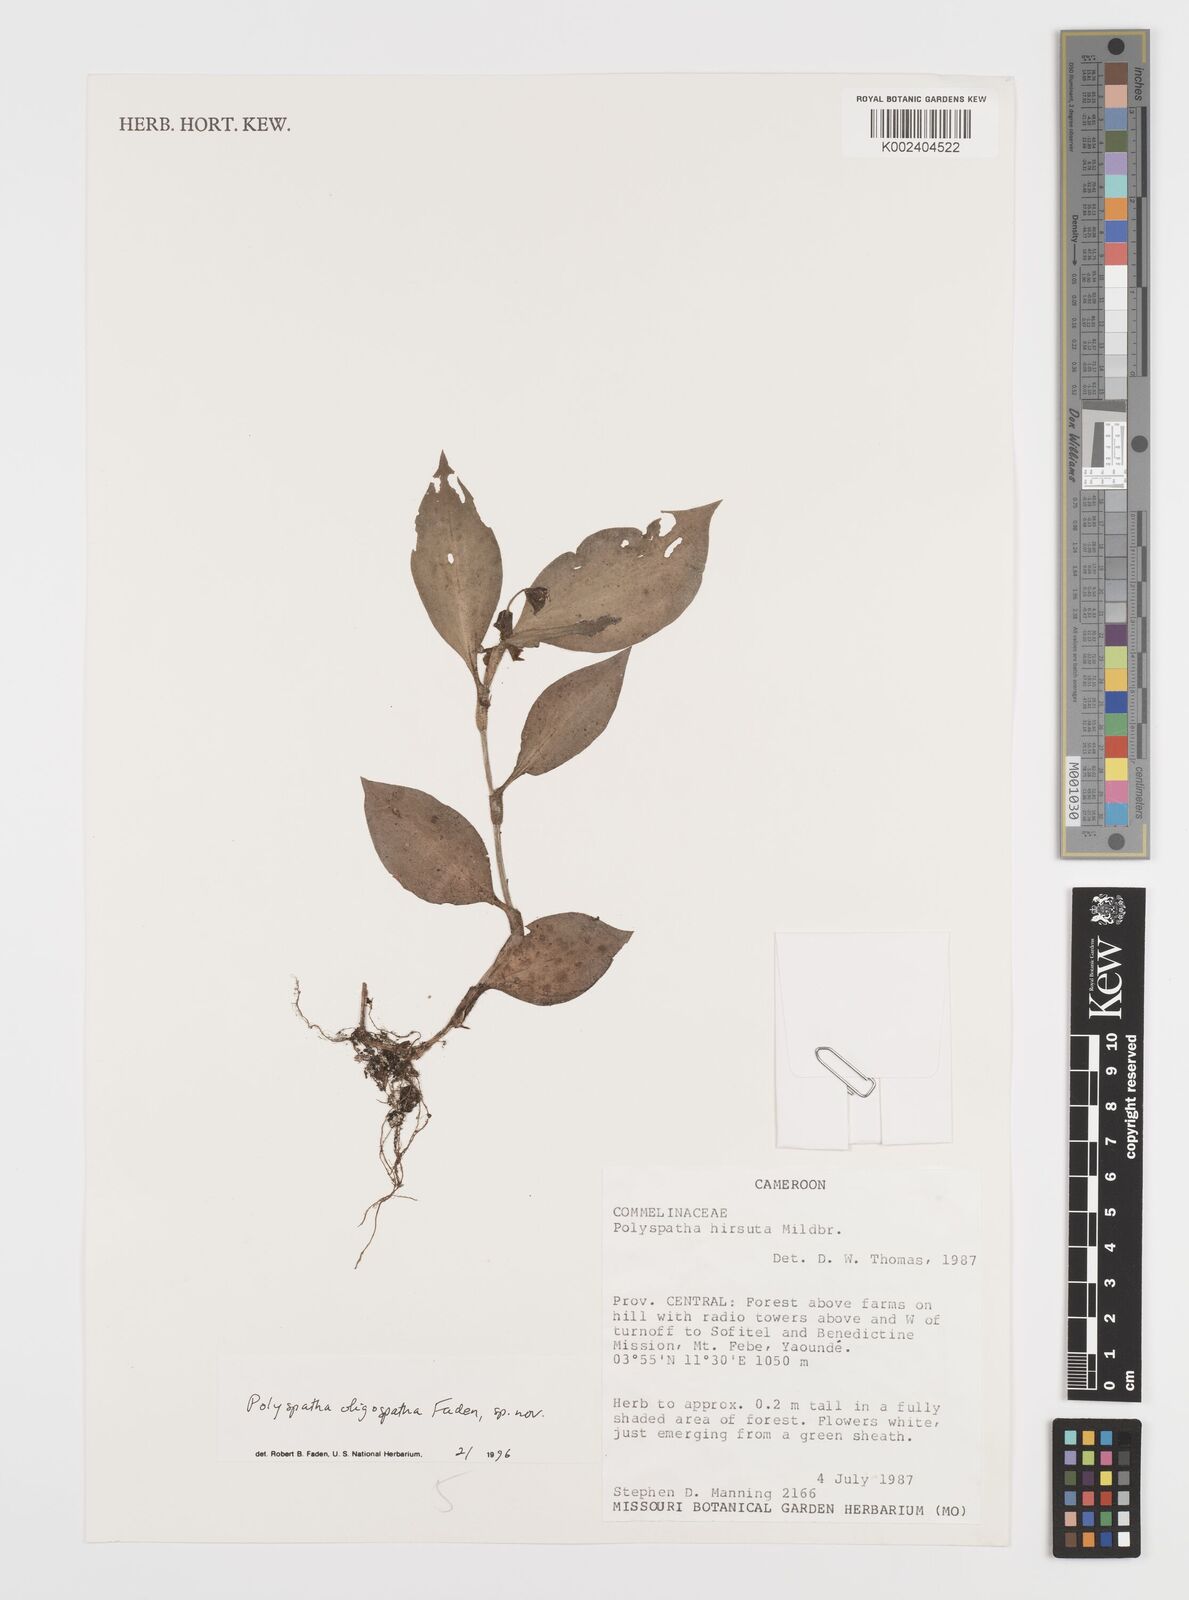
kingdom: Plantae
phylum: Tracheophyta
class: Liliopsida
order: Commelinales
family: Commelinaceae
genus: Polyspatha
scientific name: Polyspatha paniculata
